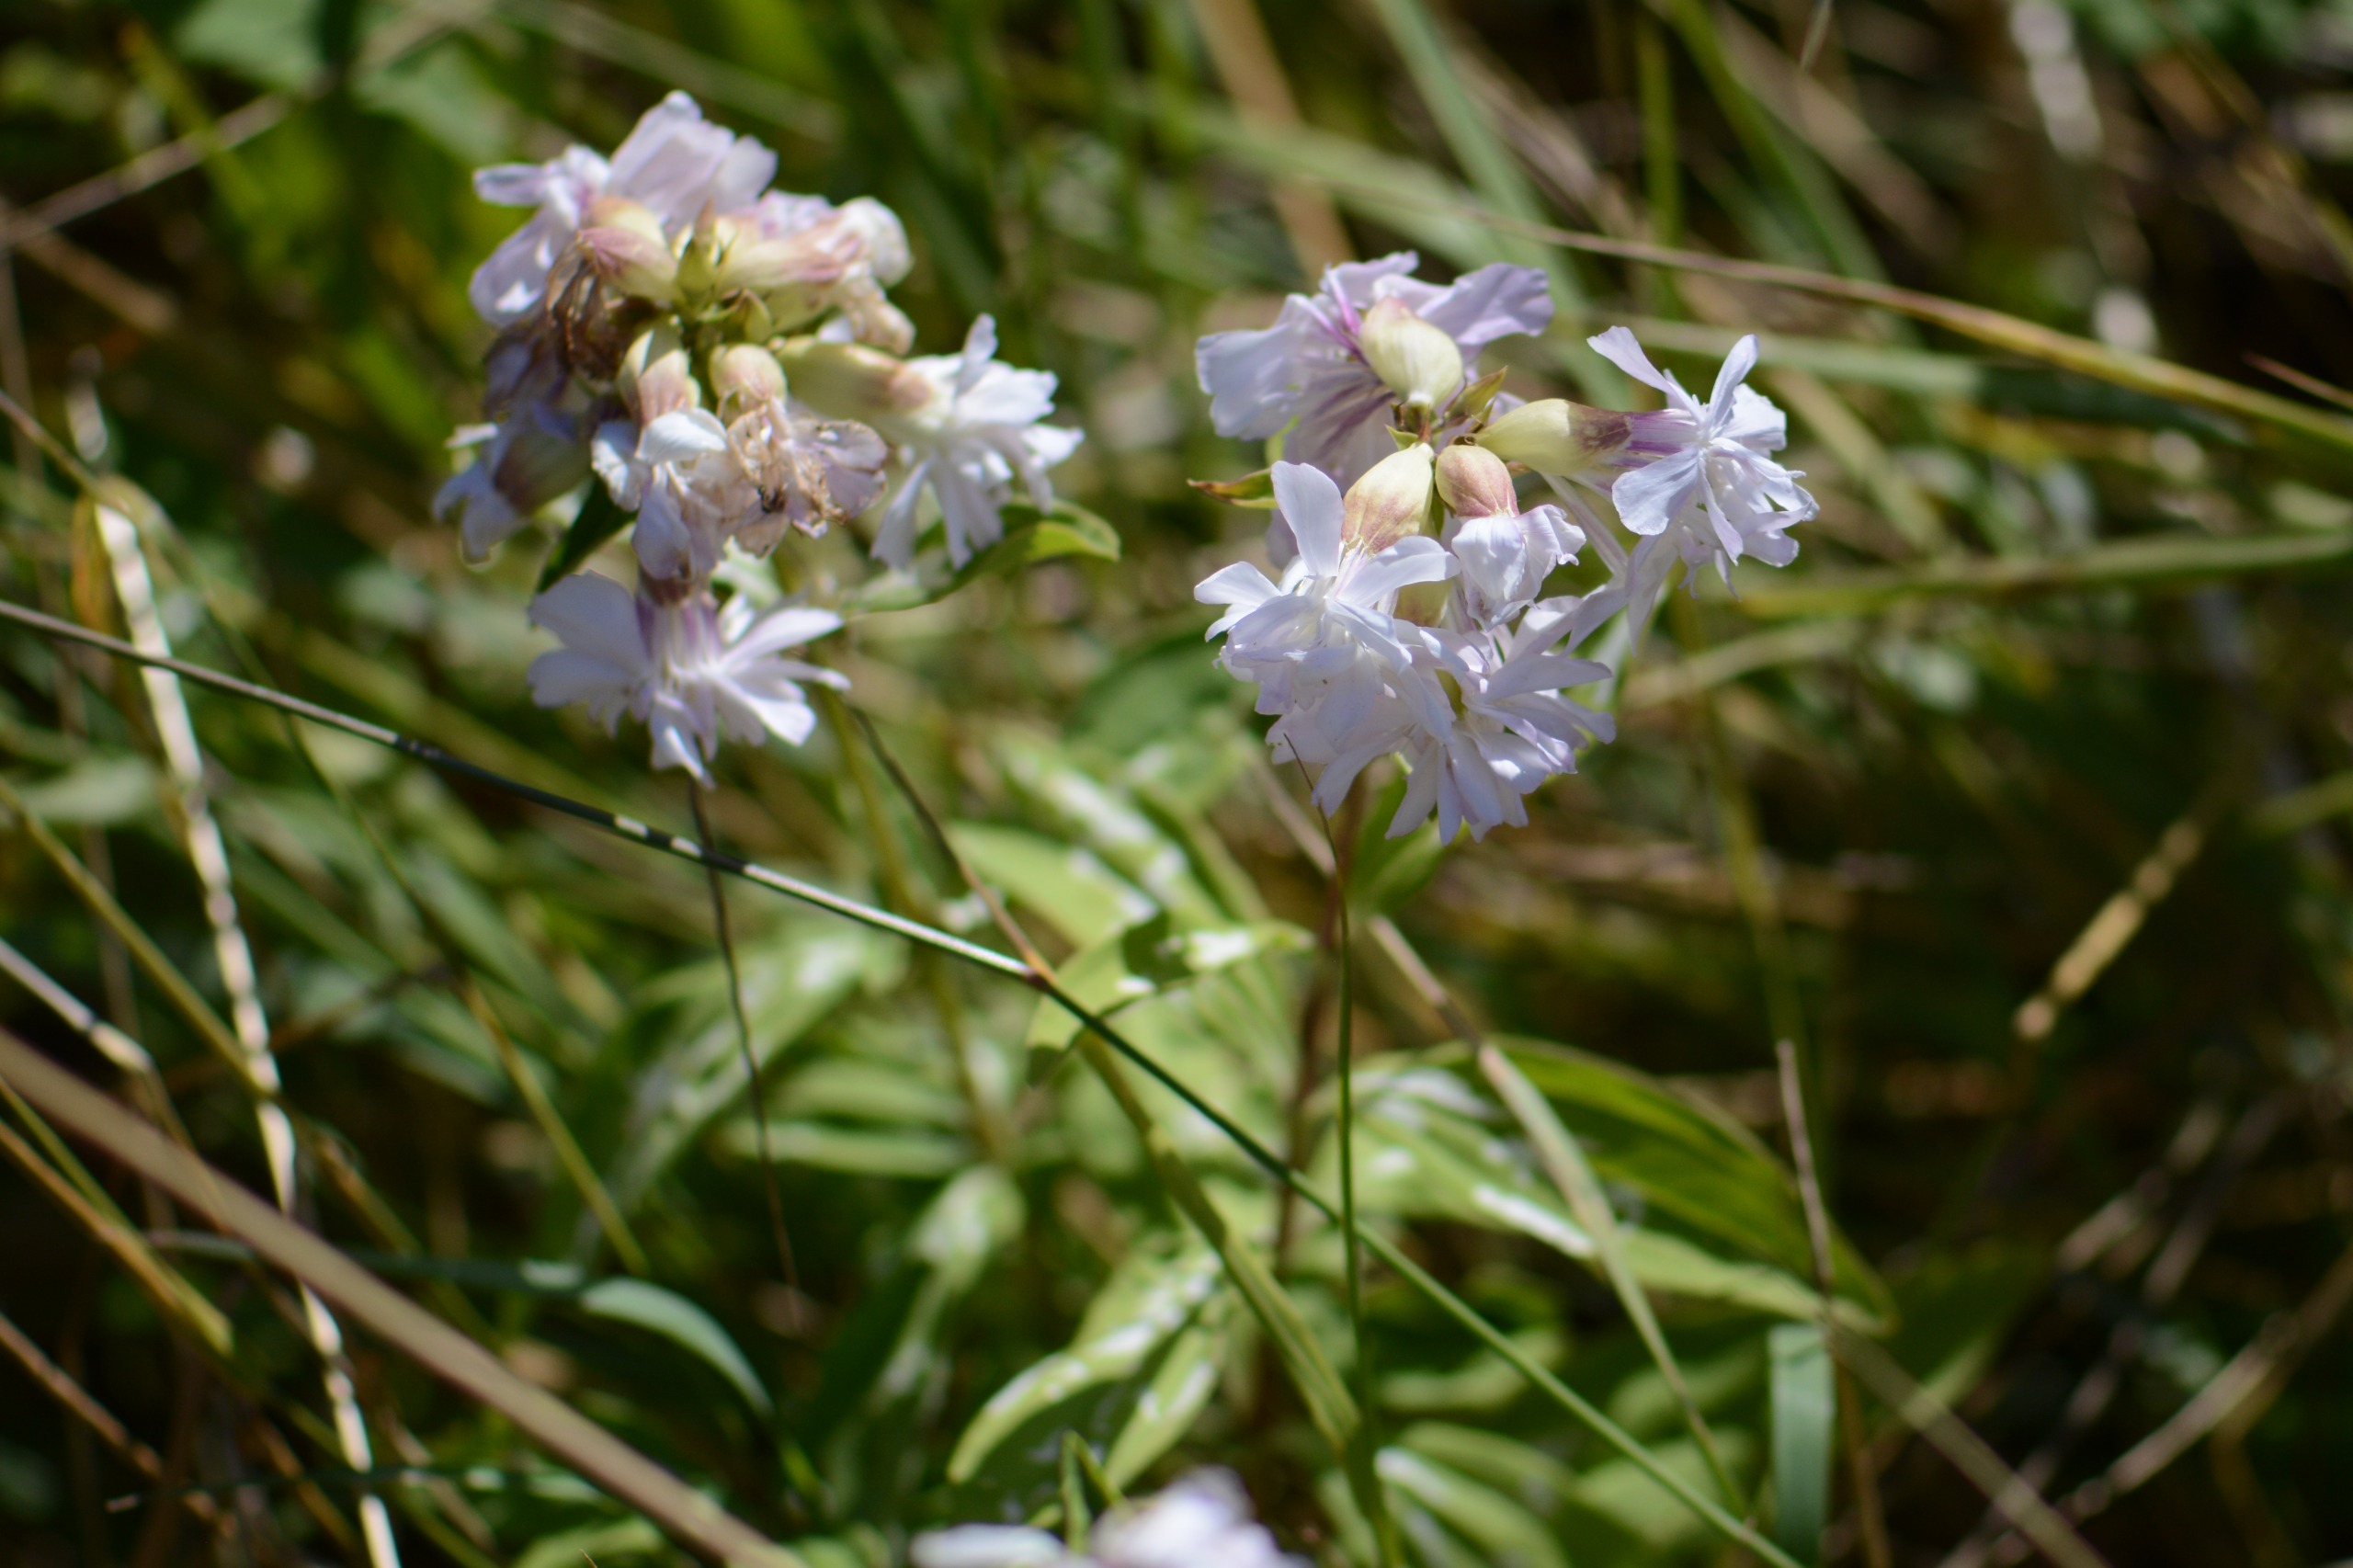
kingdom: Plantae
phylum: Tracheophyta
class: Magnoliopsida
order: Caryophyllales
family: Caryophyllaceae
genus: Saponaria
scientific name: Saponaria officinalis
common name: Sæbeurt
